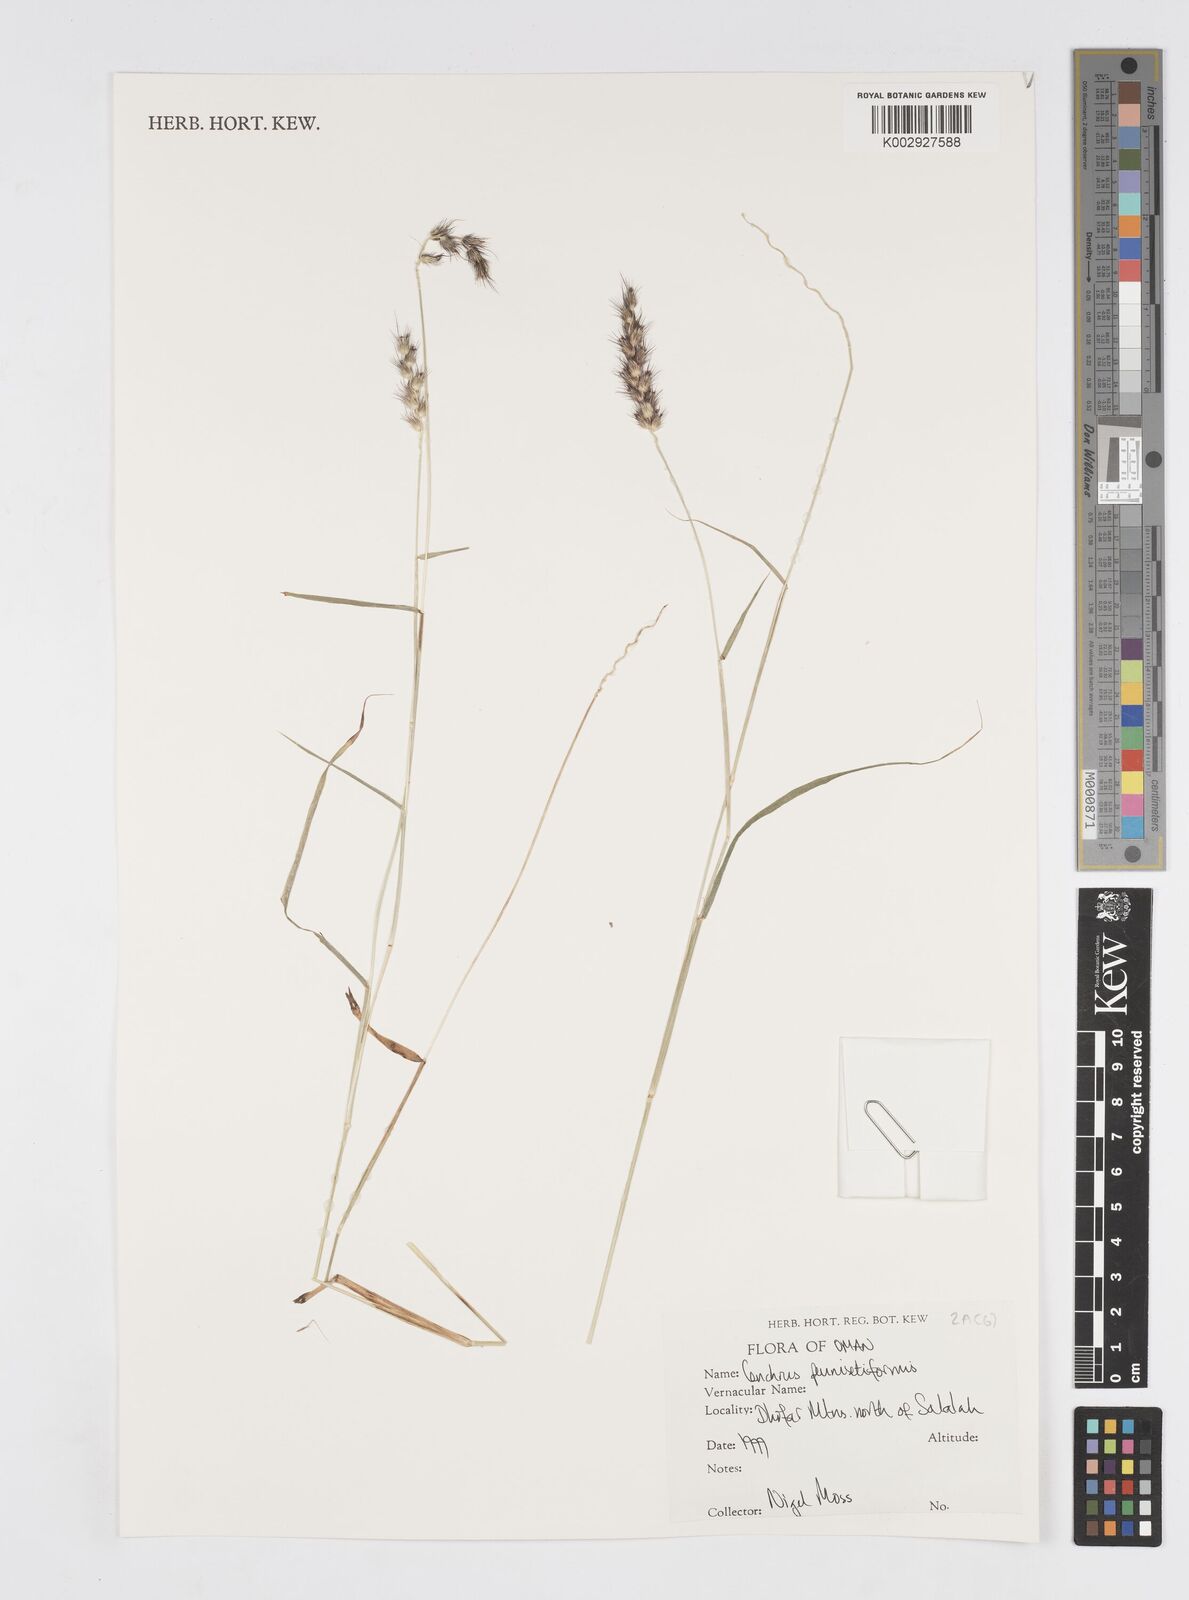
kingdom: Plantae
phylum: Tracheophyta
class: Liliopsida
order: Poales
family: Poaceae
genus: Cenchrus
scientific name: Cenchrus pennisetiformis
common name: Cloncurry
